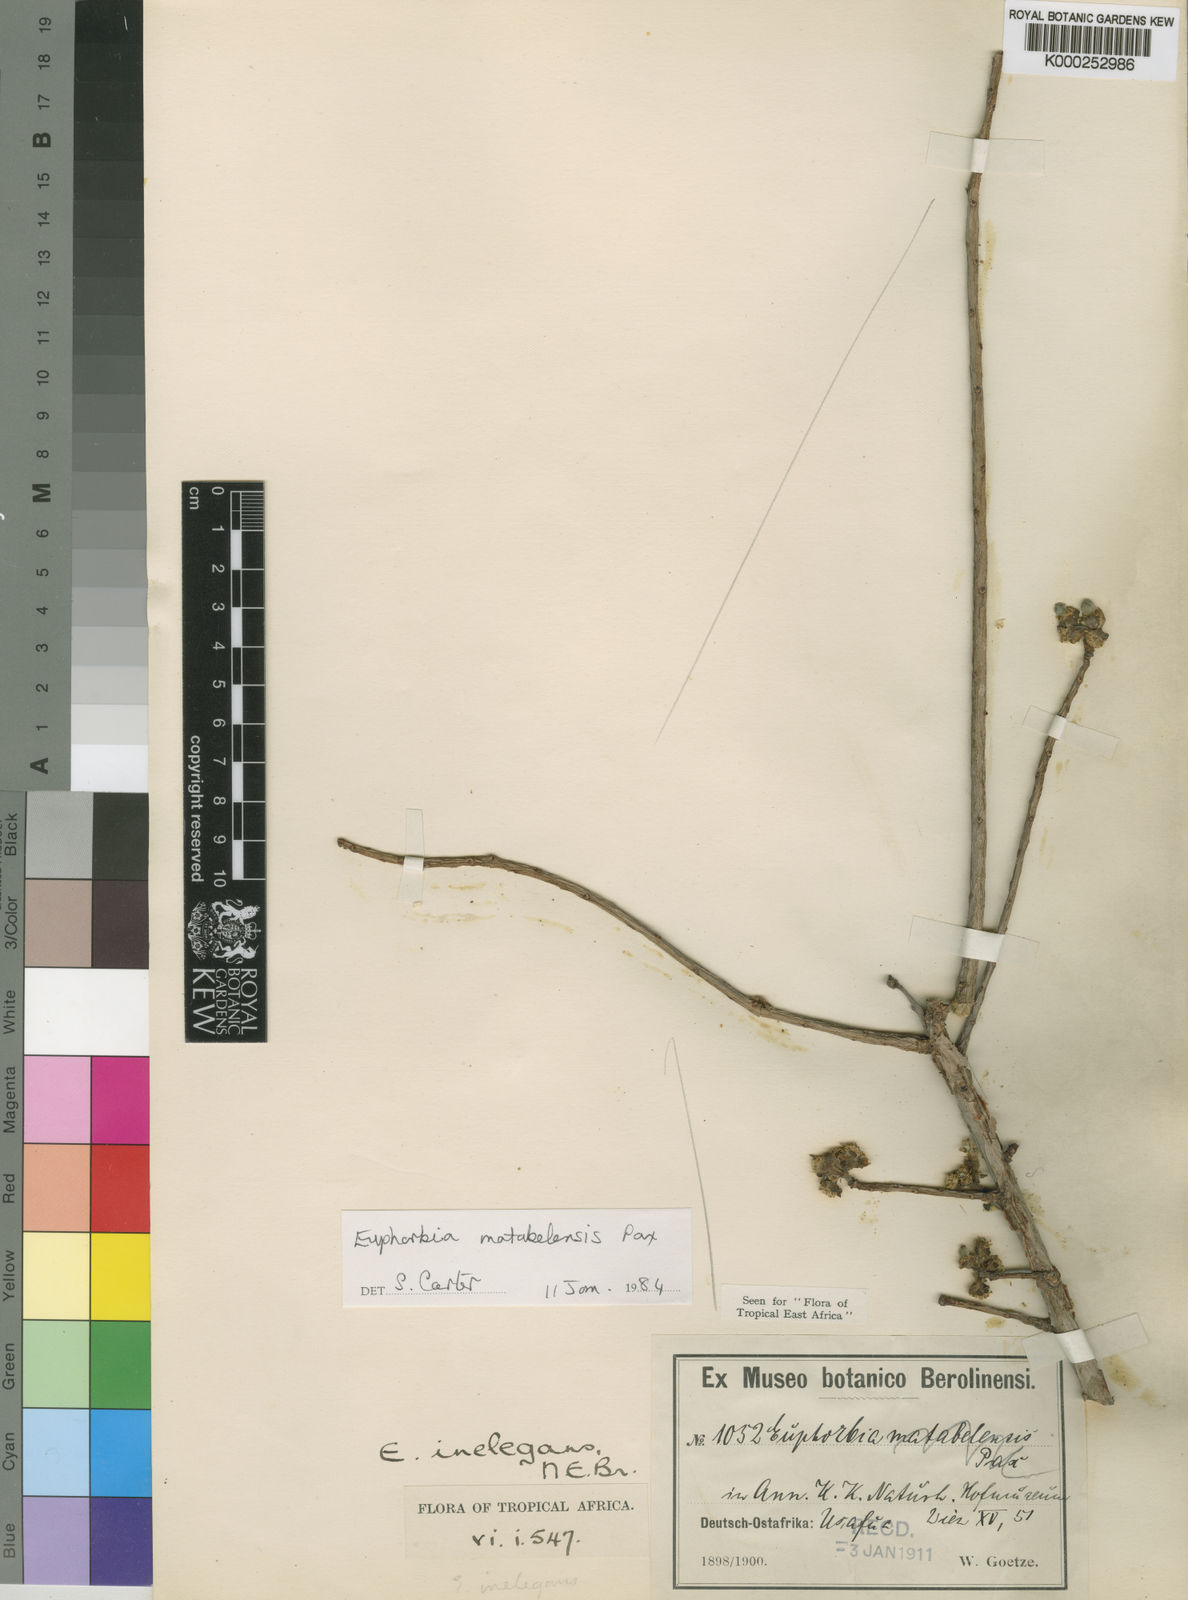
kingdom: Plantae
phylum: Tracheophyta
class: Magnoliopsida
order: Malpighiales
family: Euphorbiaceae
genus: Euphorbia
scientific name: Euphorbia matabelensis
